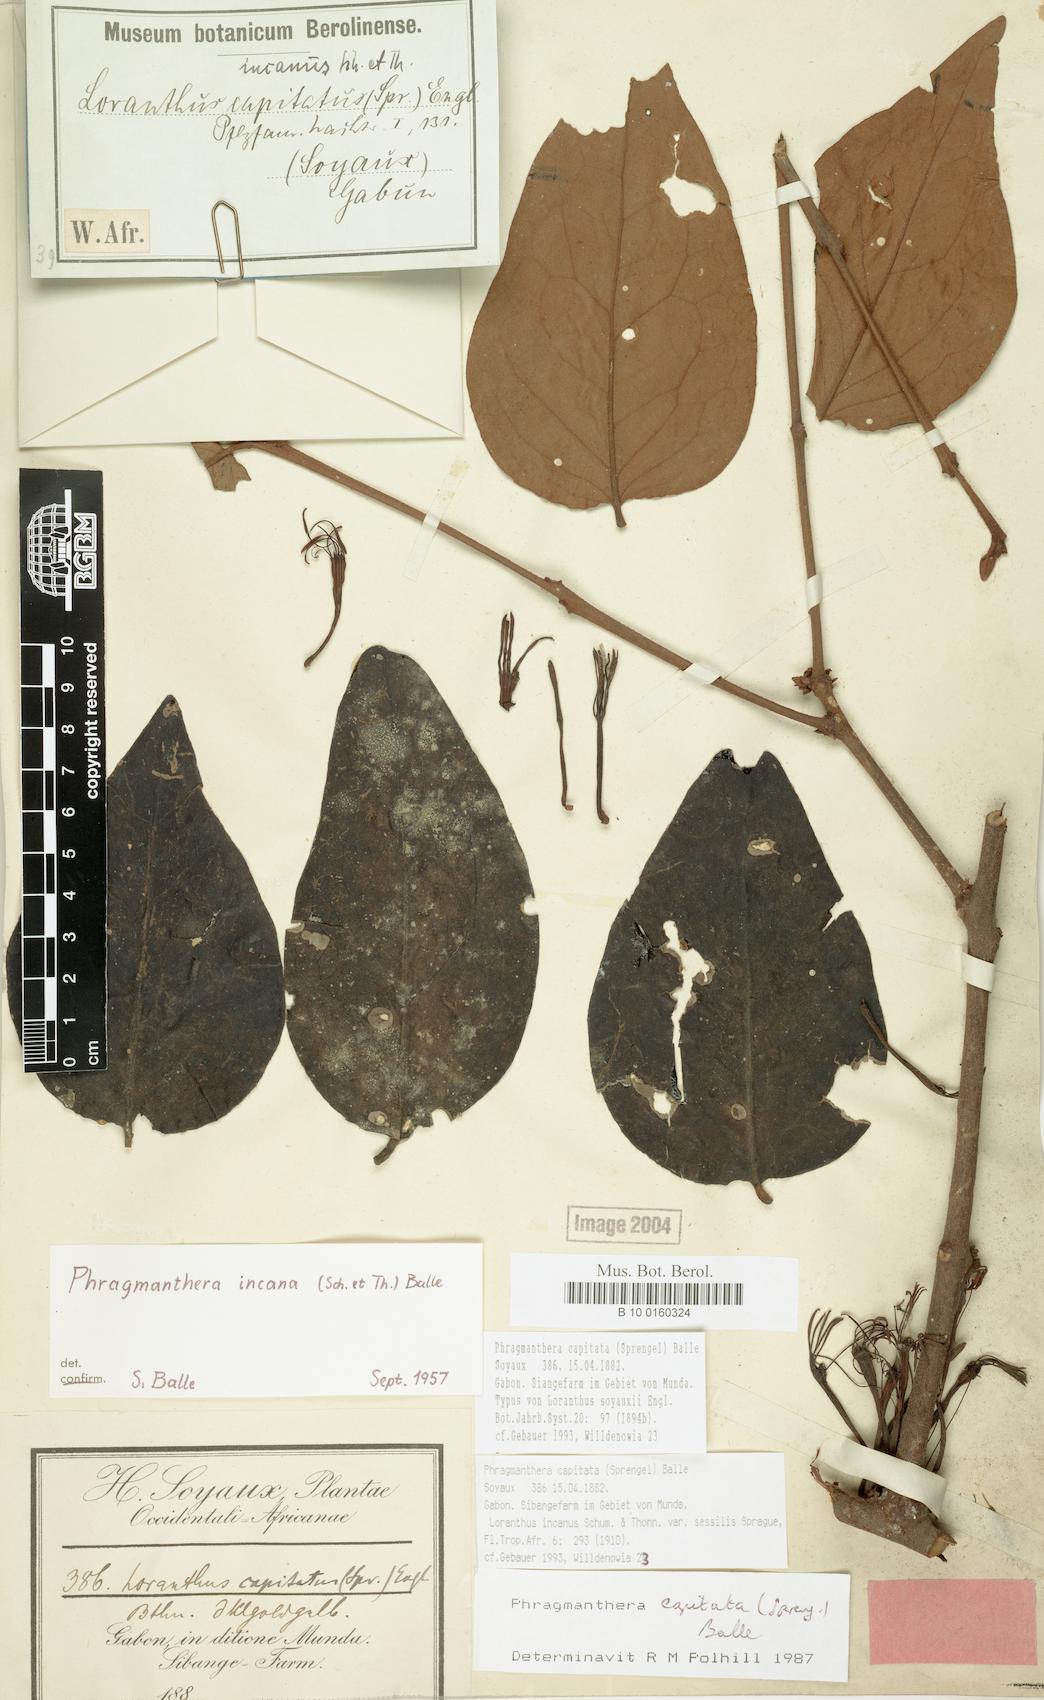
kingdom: Plantae
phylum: Tracheophyta
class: Magnoliopsida
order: Santalales
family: Loranthaceae
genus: Phragmanthera
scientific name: Phragmanthera capitata
